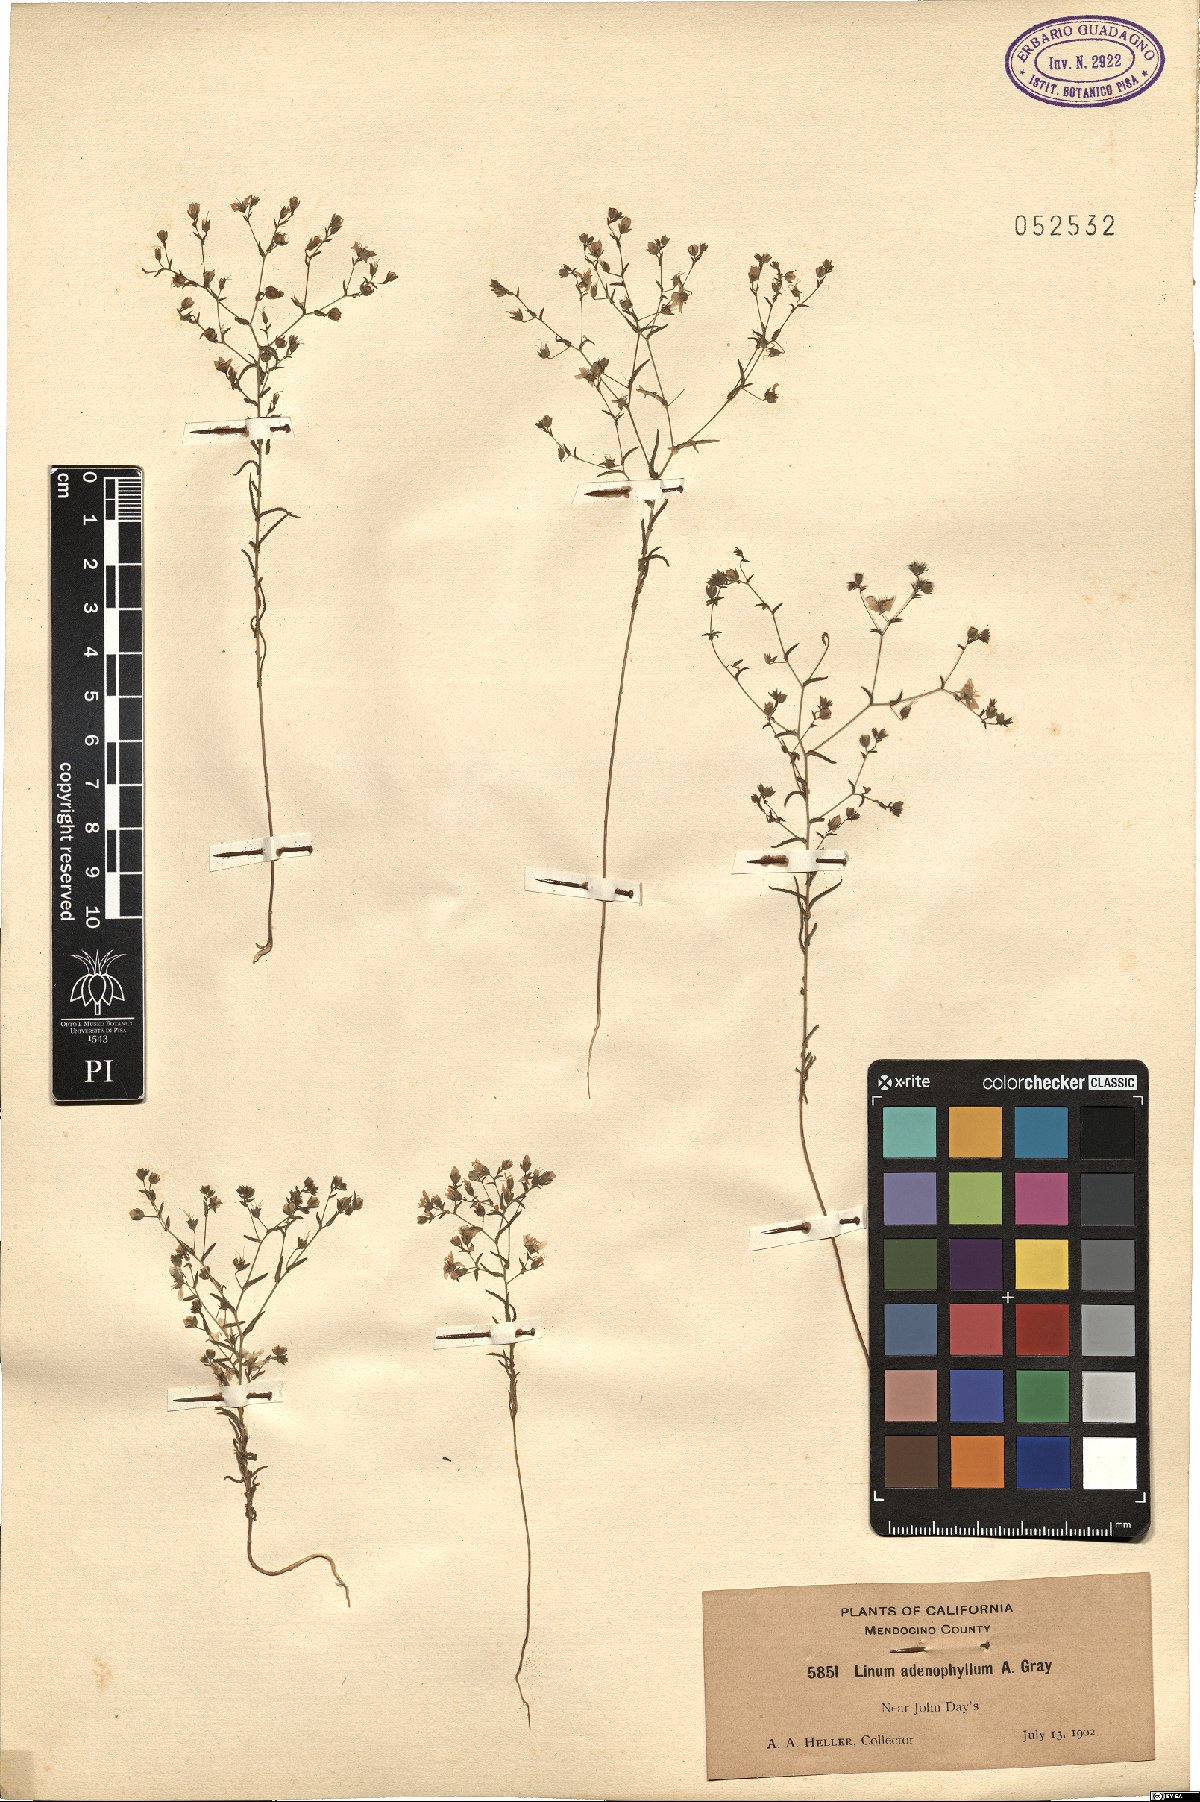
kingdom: Plantae
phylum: Tracheophyta
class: Magnoliopsida
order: Malpighiales
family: Linaceae
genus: Hesperolinon
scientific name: Hesperolinon adenophyllum
